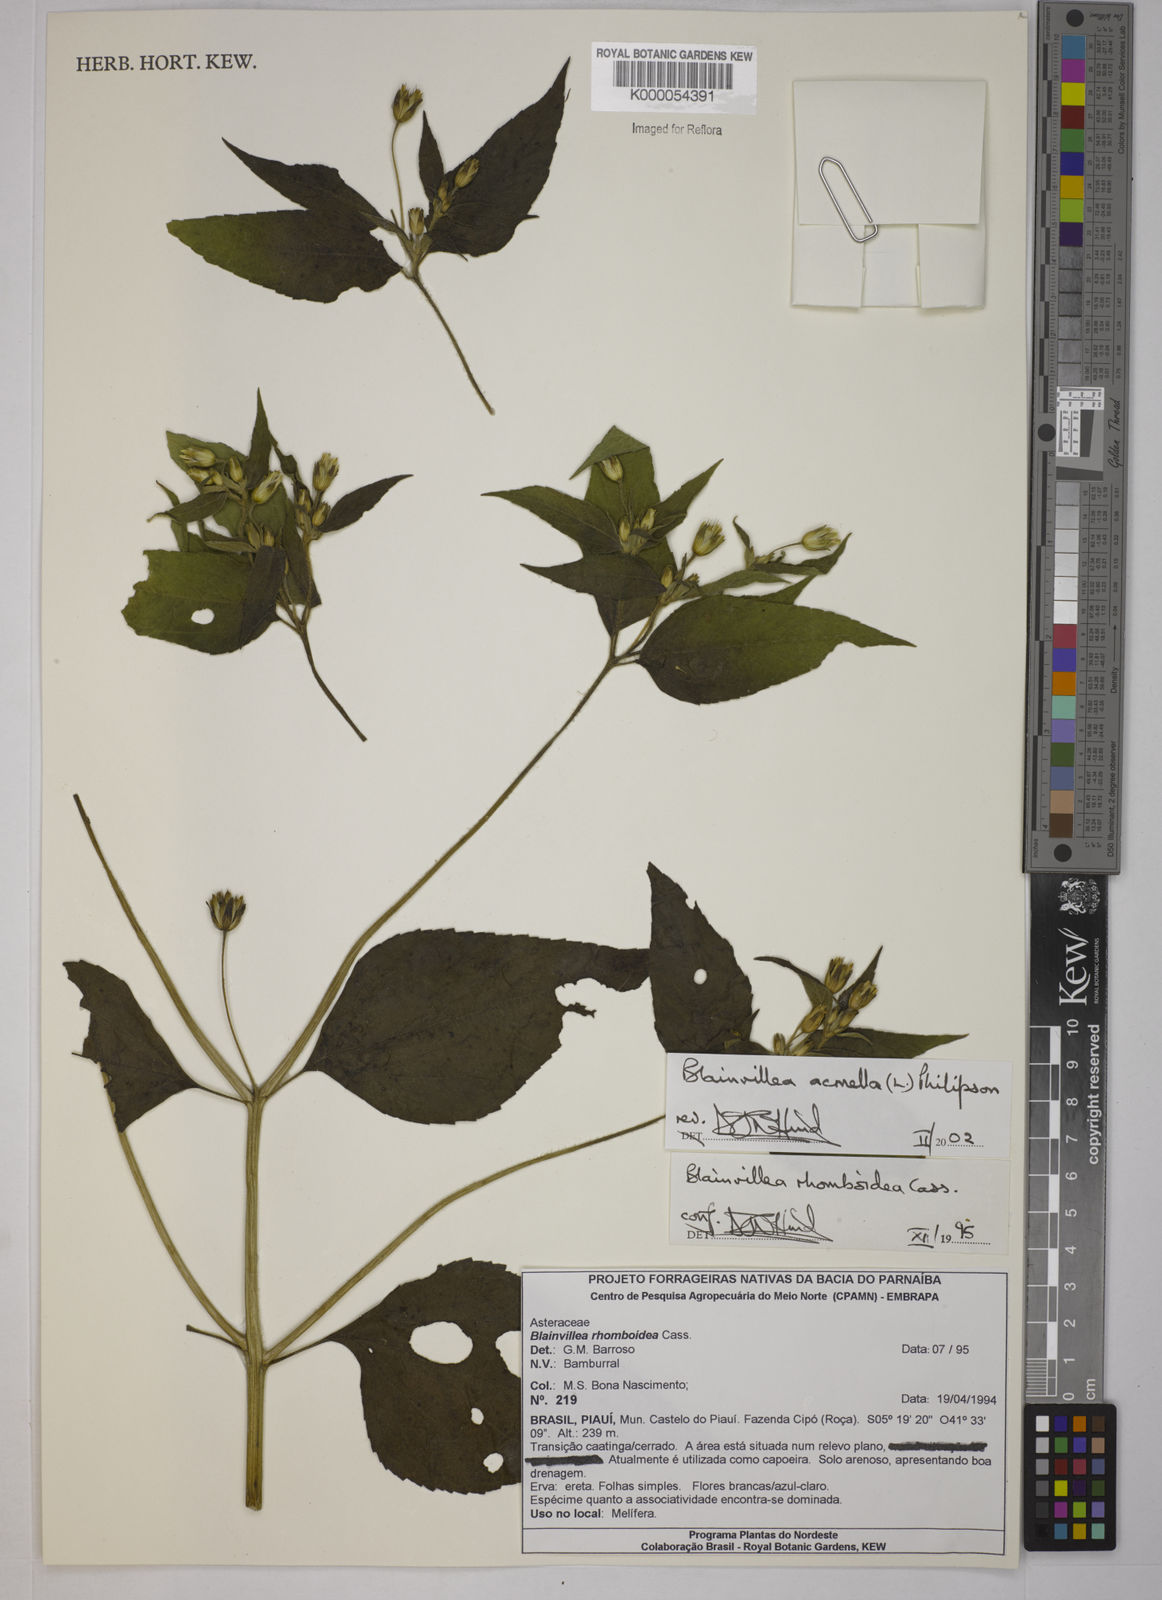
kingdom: Plantae
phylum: Tracheophyta
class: Magnoliopsida
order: Asterales
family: Asteraceae
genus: Blainvillea
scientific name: Blainvillea acmella
